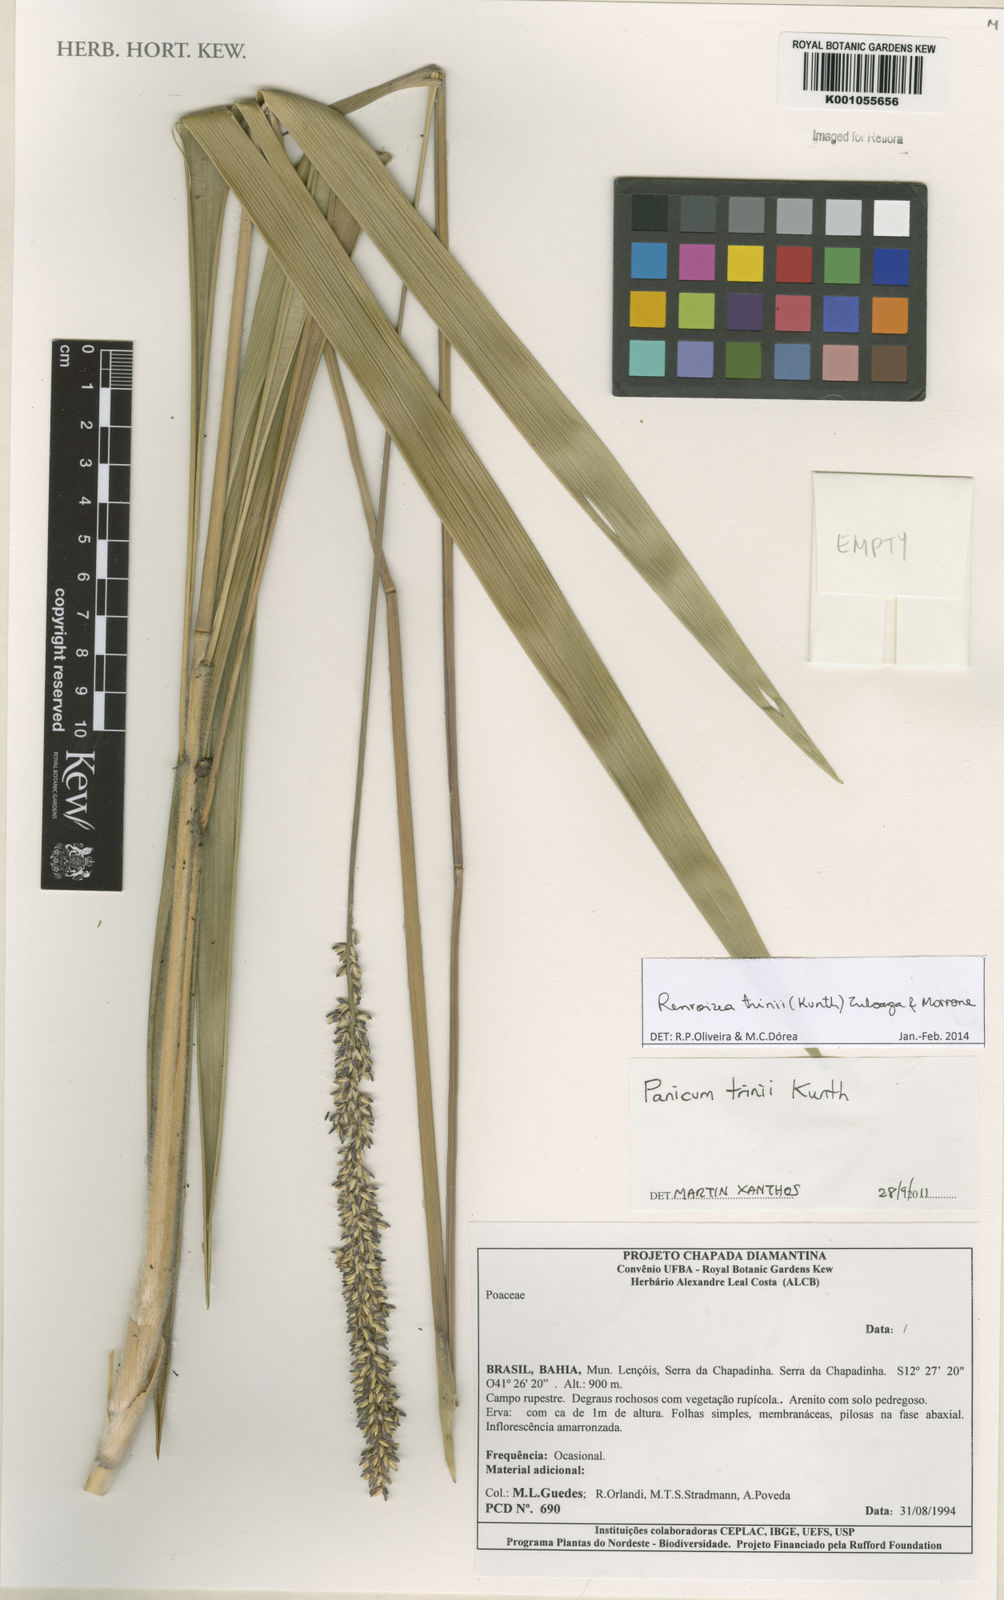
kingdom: Plantae
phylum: Tracheophyta
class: Liliopsida
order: Poales
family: Poaceae
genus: Renvoizea
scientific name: Renvoizea trinii
